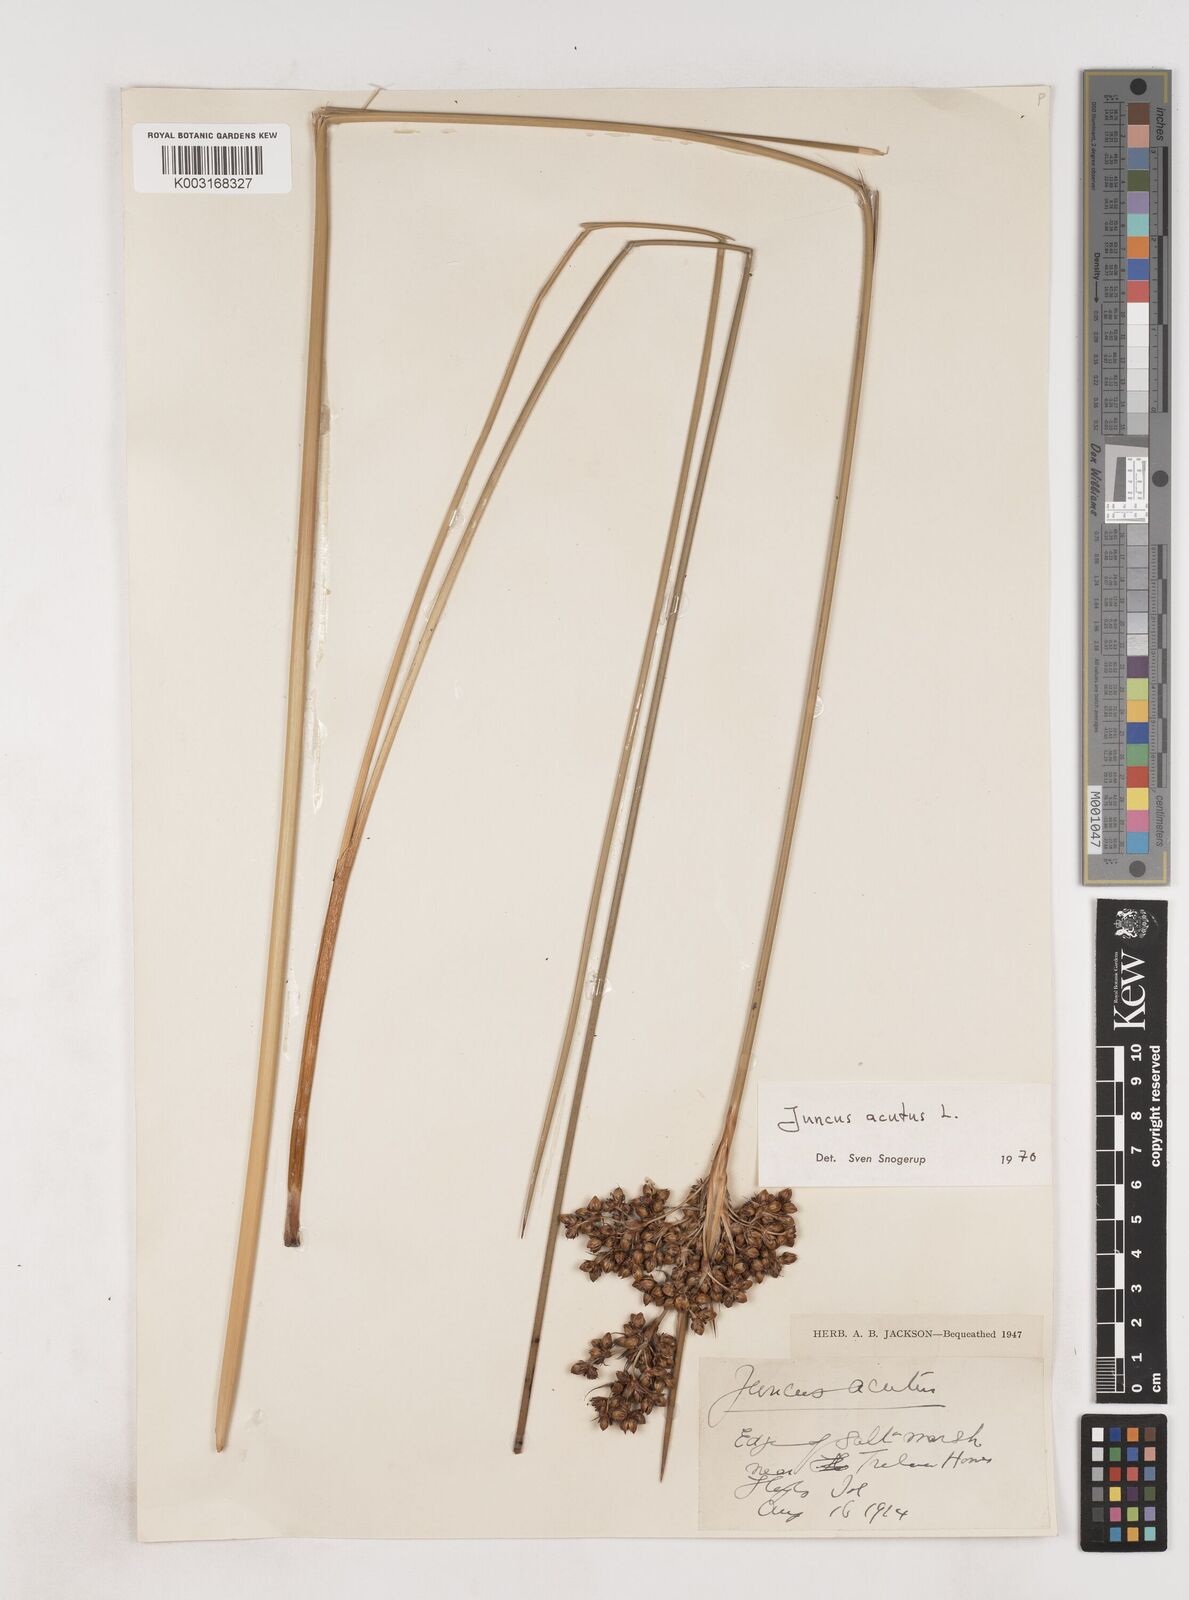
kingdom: Plantae
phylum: Tracheophyta
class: Liliopsida
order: Poales
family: Juncaceae
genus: Juncus
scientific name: Juncus acutus
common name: Sharp rush
